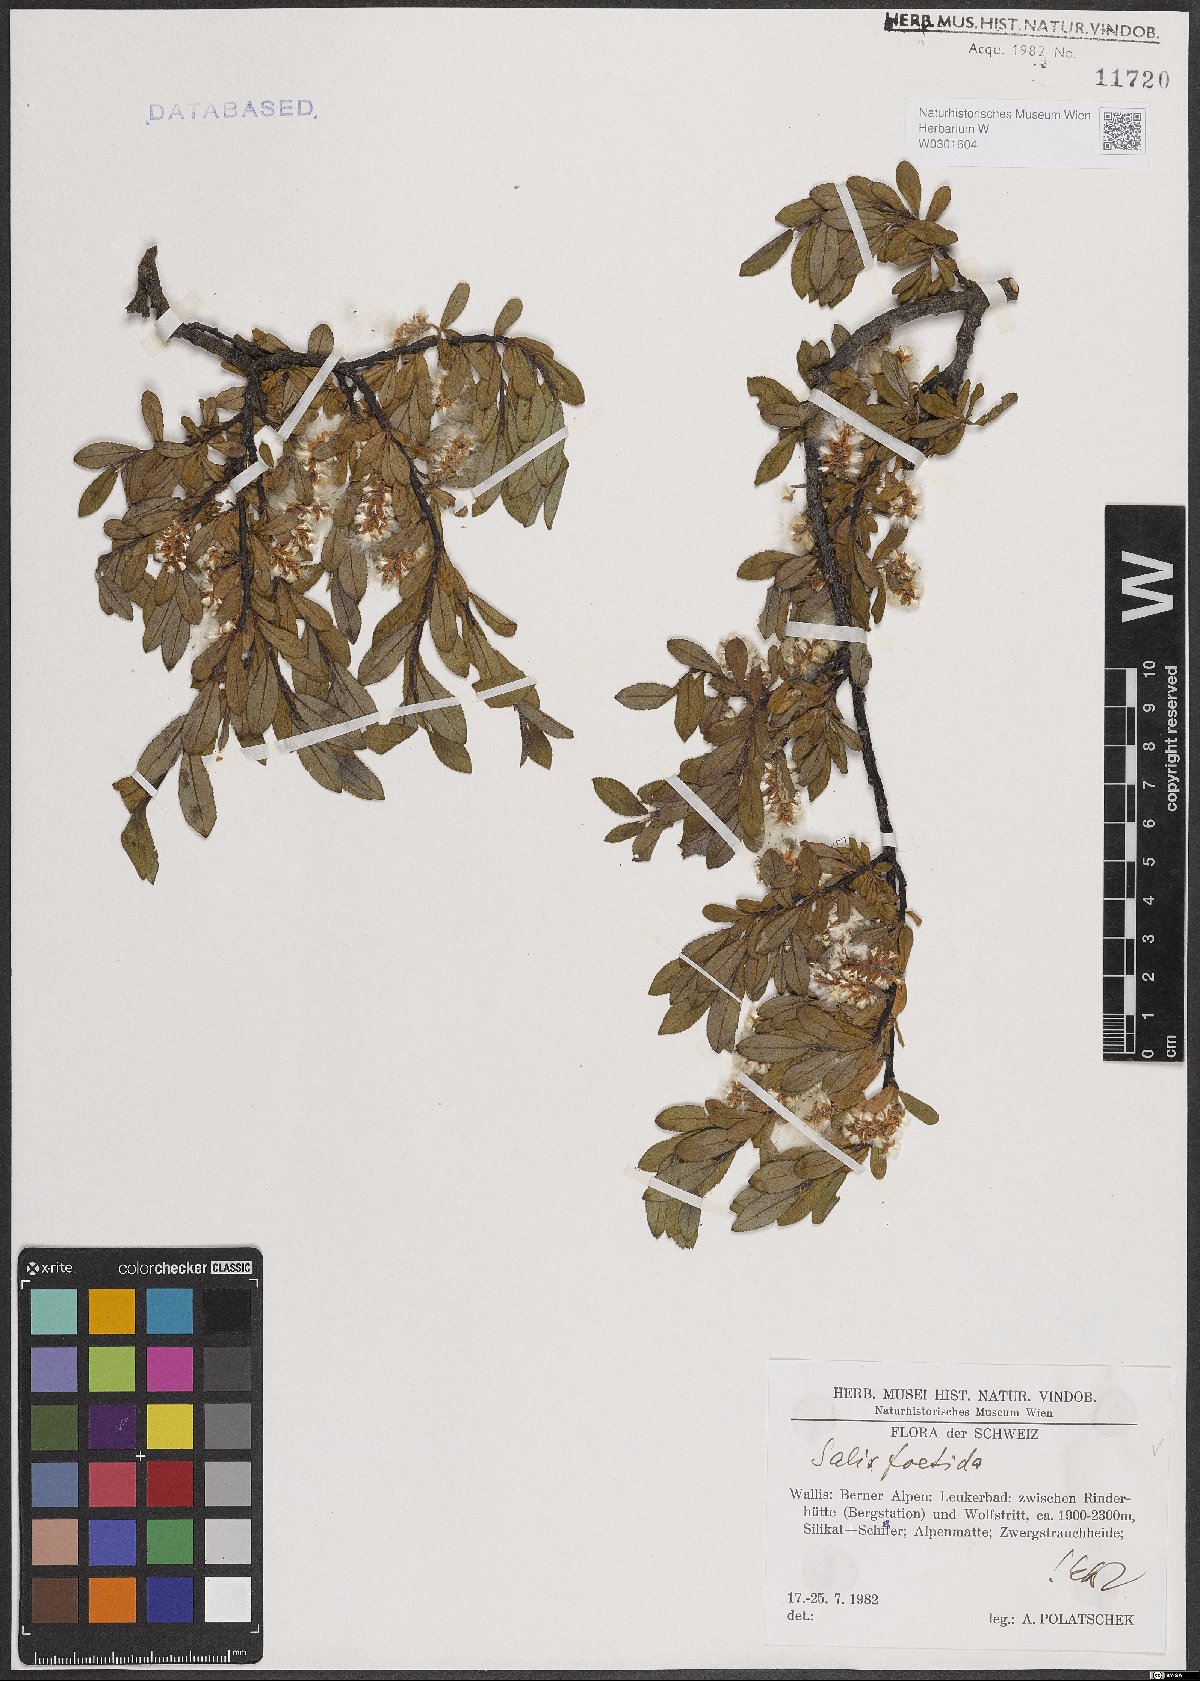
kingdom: Plantae
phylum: Tracheophyta
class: Magnoliopsida
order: Malpighiales
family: Salicaceae
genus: Salix
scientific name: Salix foetida
